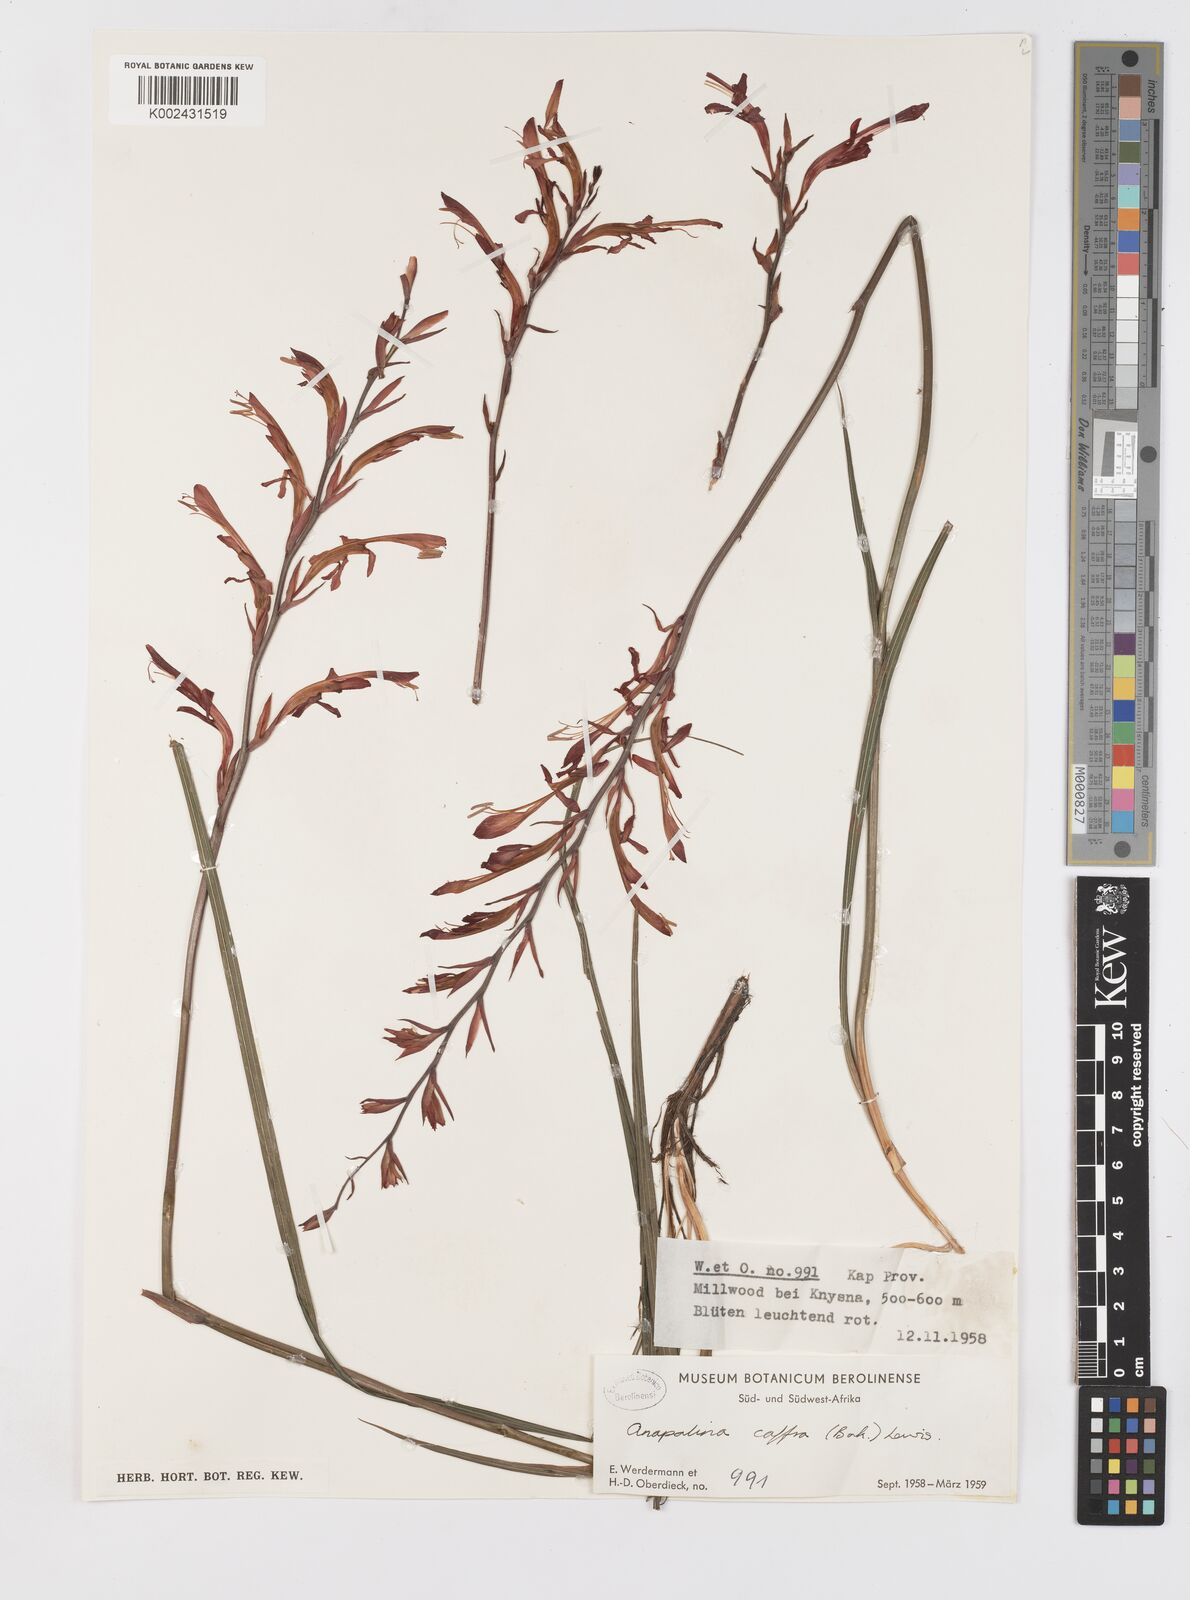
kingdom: Plantae
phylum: Tracheophyta
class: Liliopsida
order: Asparagales
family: Iridaceae
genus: Tritoniopsis
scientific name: Tritoniopsis caffra
